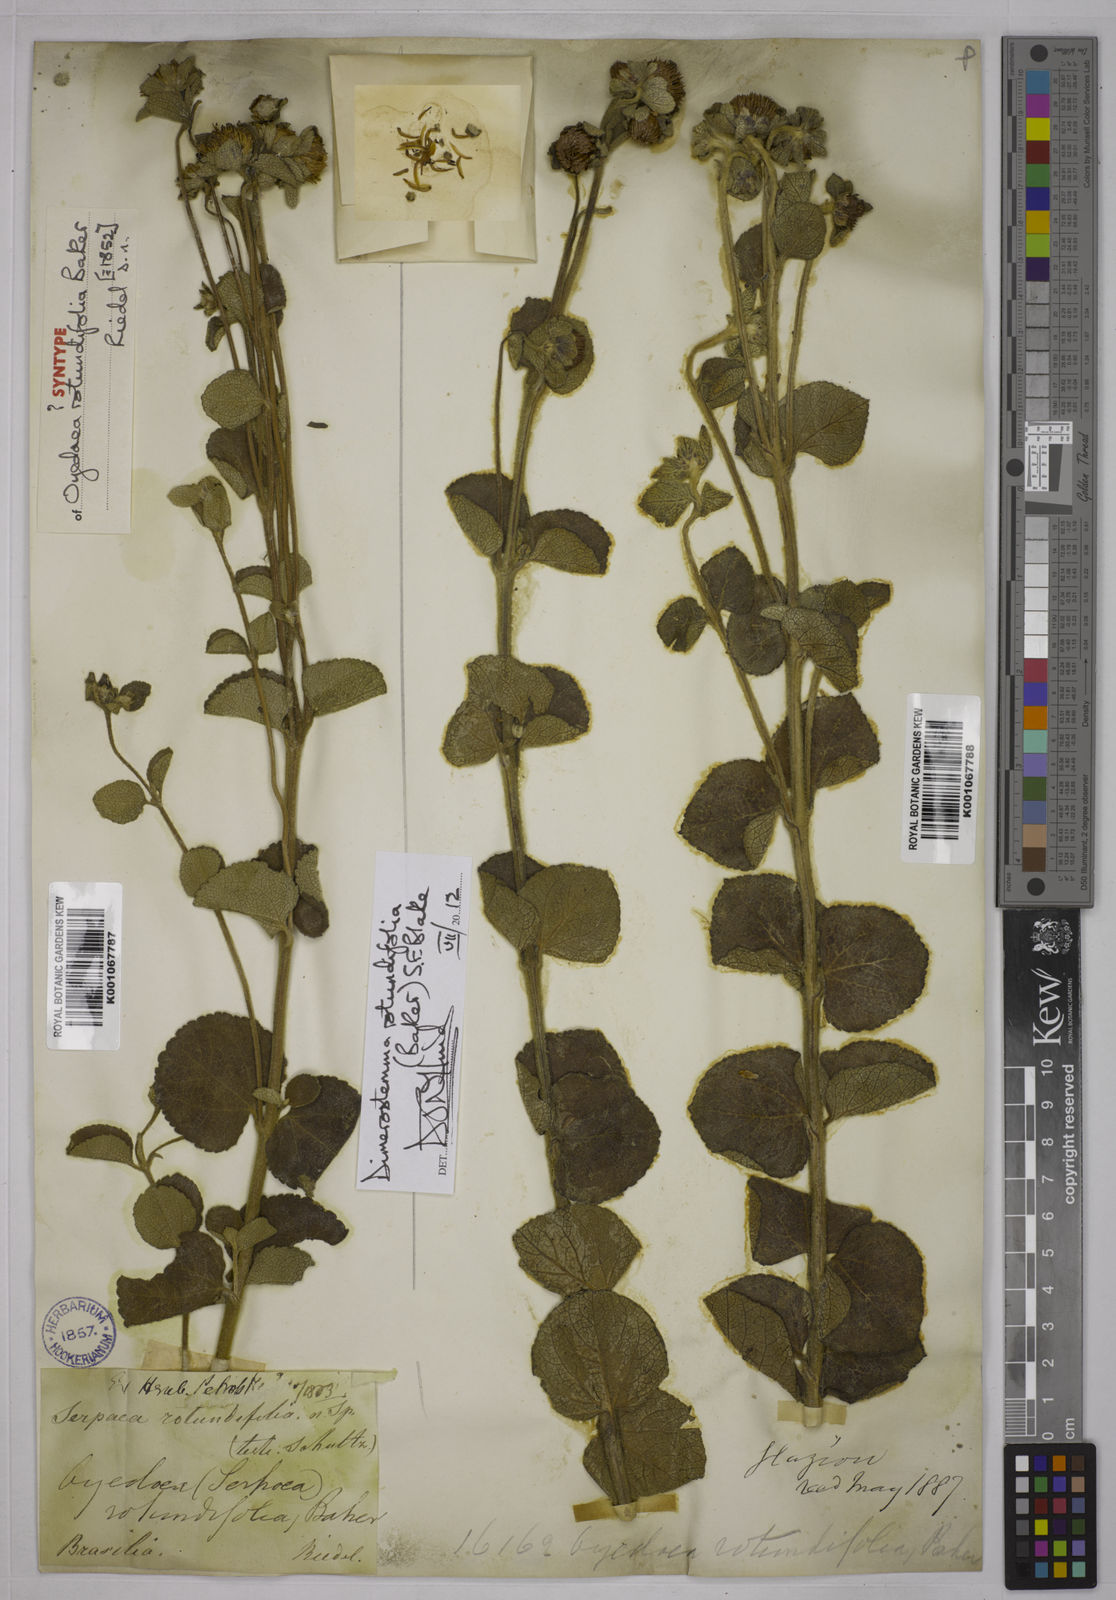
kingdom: Plantae
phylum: Tracheophyta
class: Magnoliopsida
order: Asterales
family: Asteraceae
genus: Dimerostemma
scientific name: Dimerostemma brasilianum
